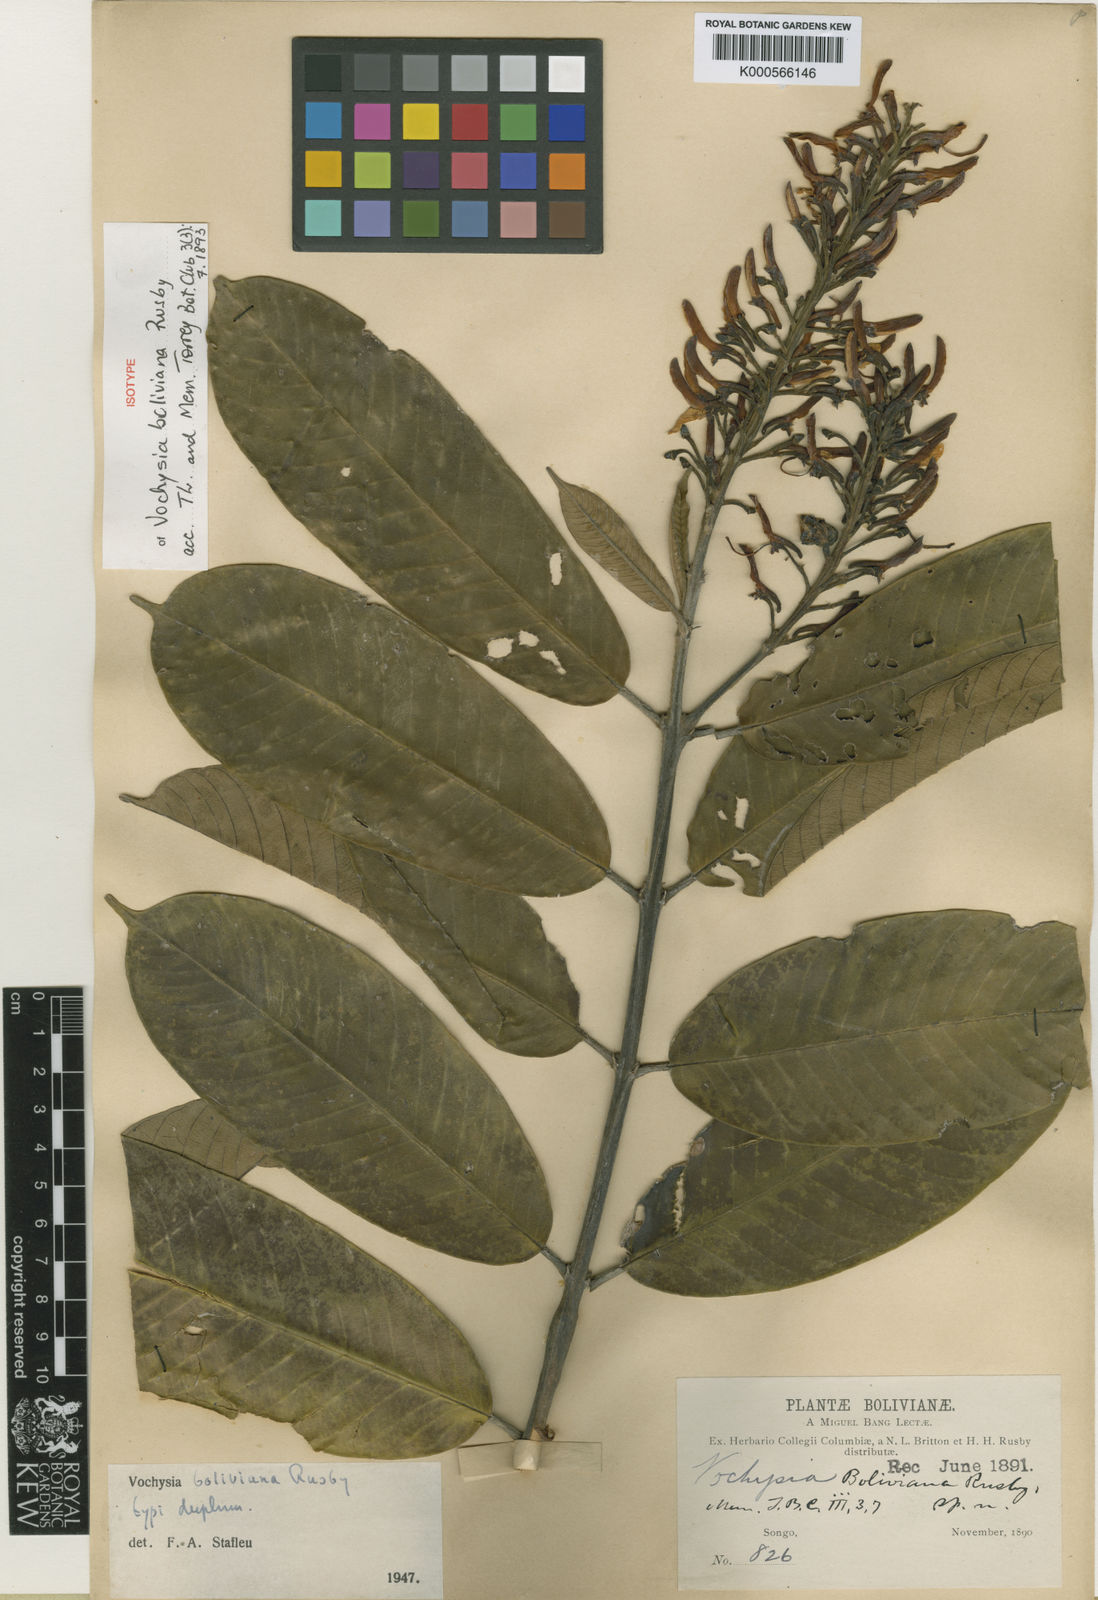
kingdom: Plantae
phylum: Tracheophyta
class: Magnoliopsida
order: Myrtales
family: Vochysiaceae
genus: Vochysia
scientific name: Vochysia boliviana
